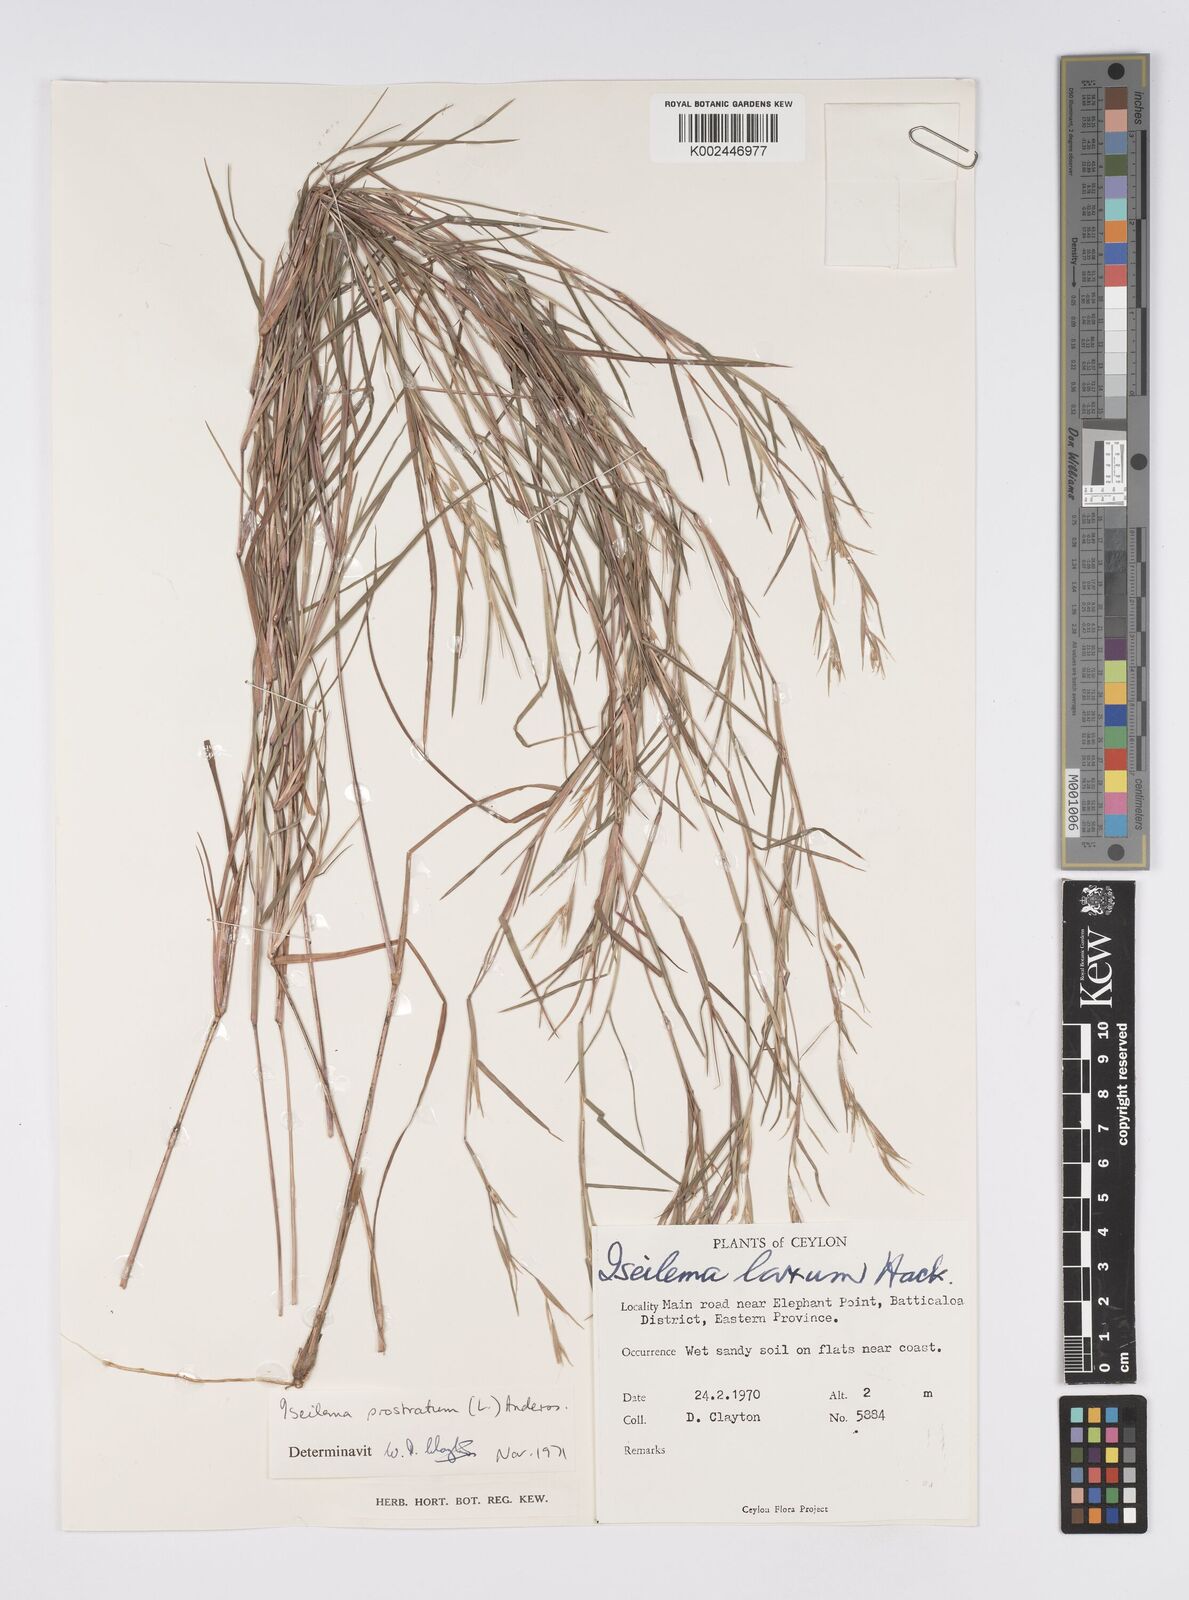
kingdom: Plantae
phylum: Tracheophyta
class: Liliopsida
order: Poales
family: Poaceae
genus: Iseilema
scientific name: Iseilema prostratum
